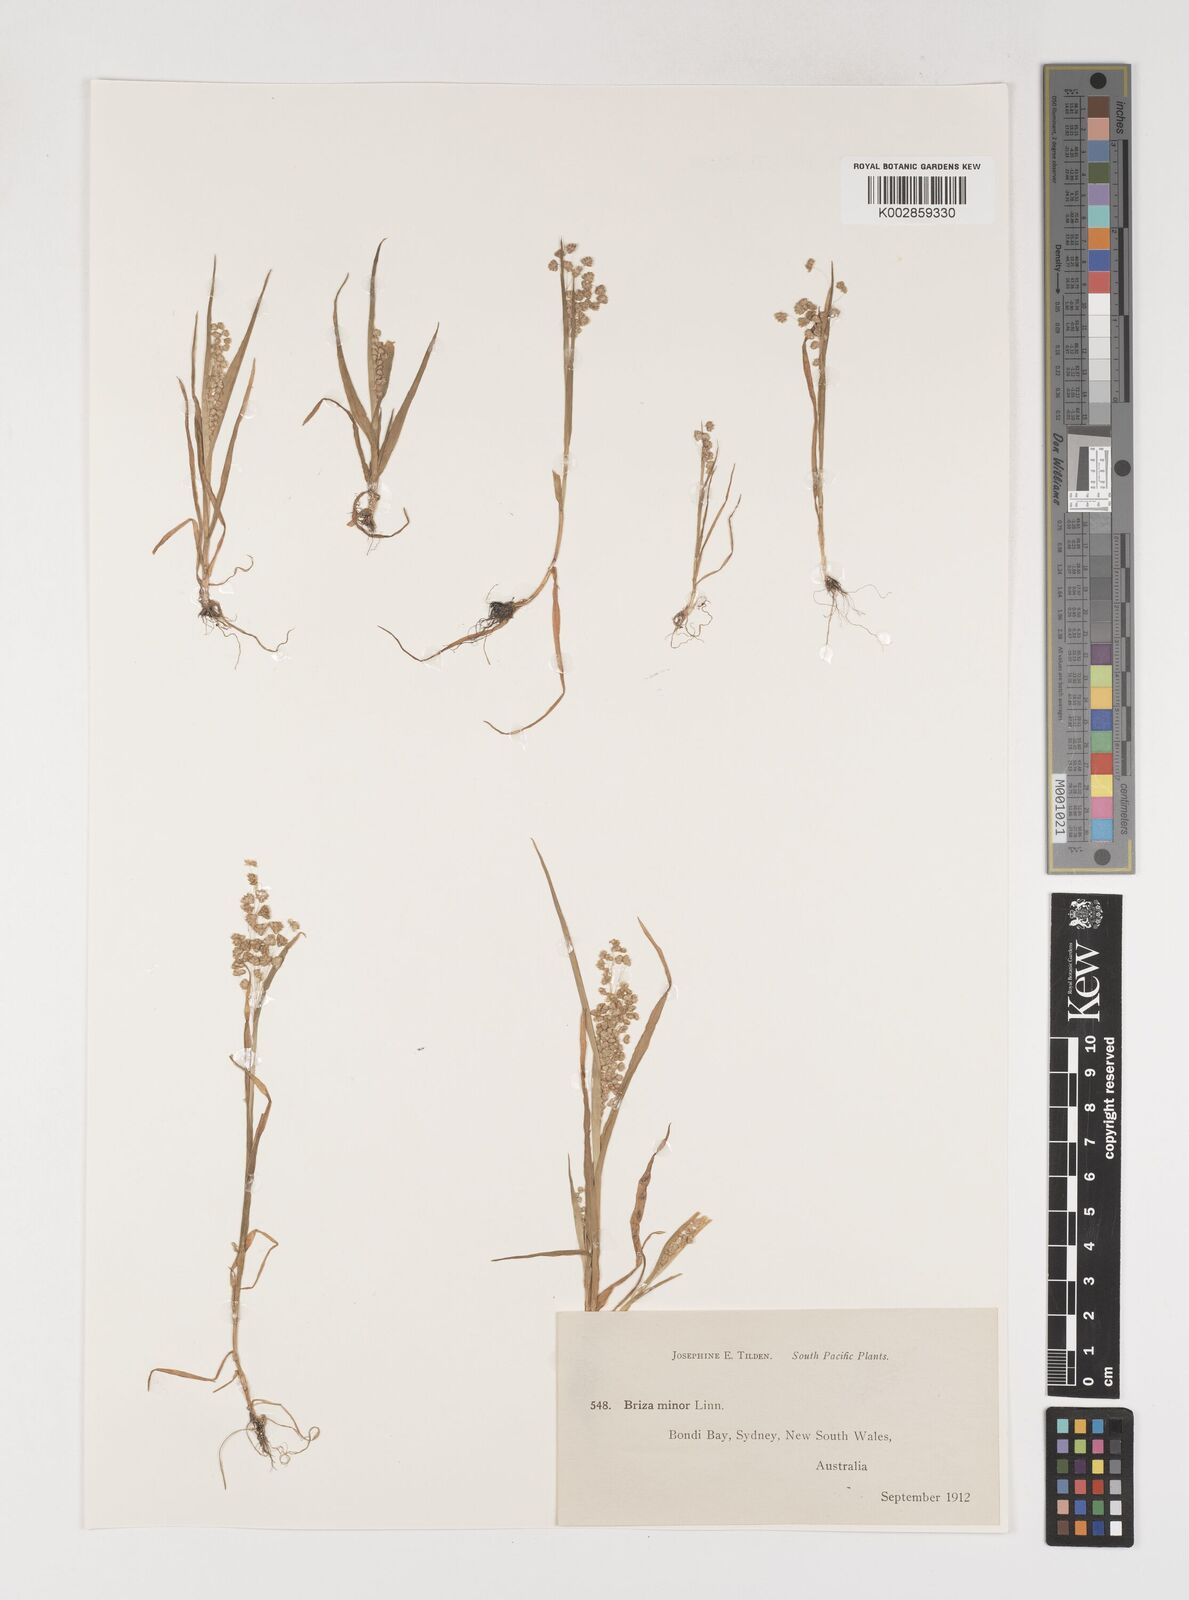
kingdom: Plantae
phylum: Tracheophyta
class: Liliopsida
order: Poales
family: Poaceae
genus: Briza
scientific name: Briza minor
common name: Lesser quaking-grass
